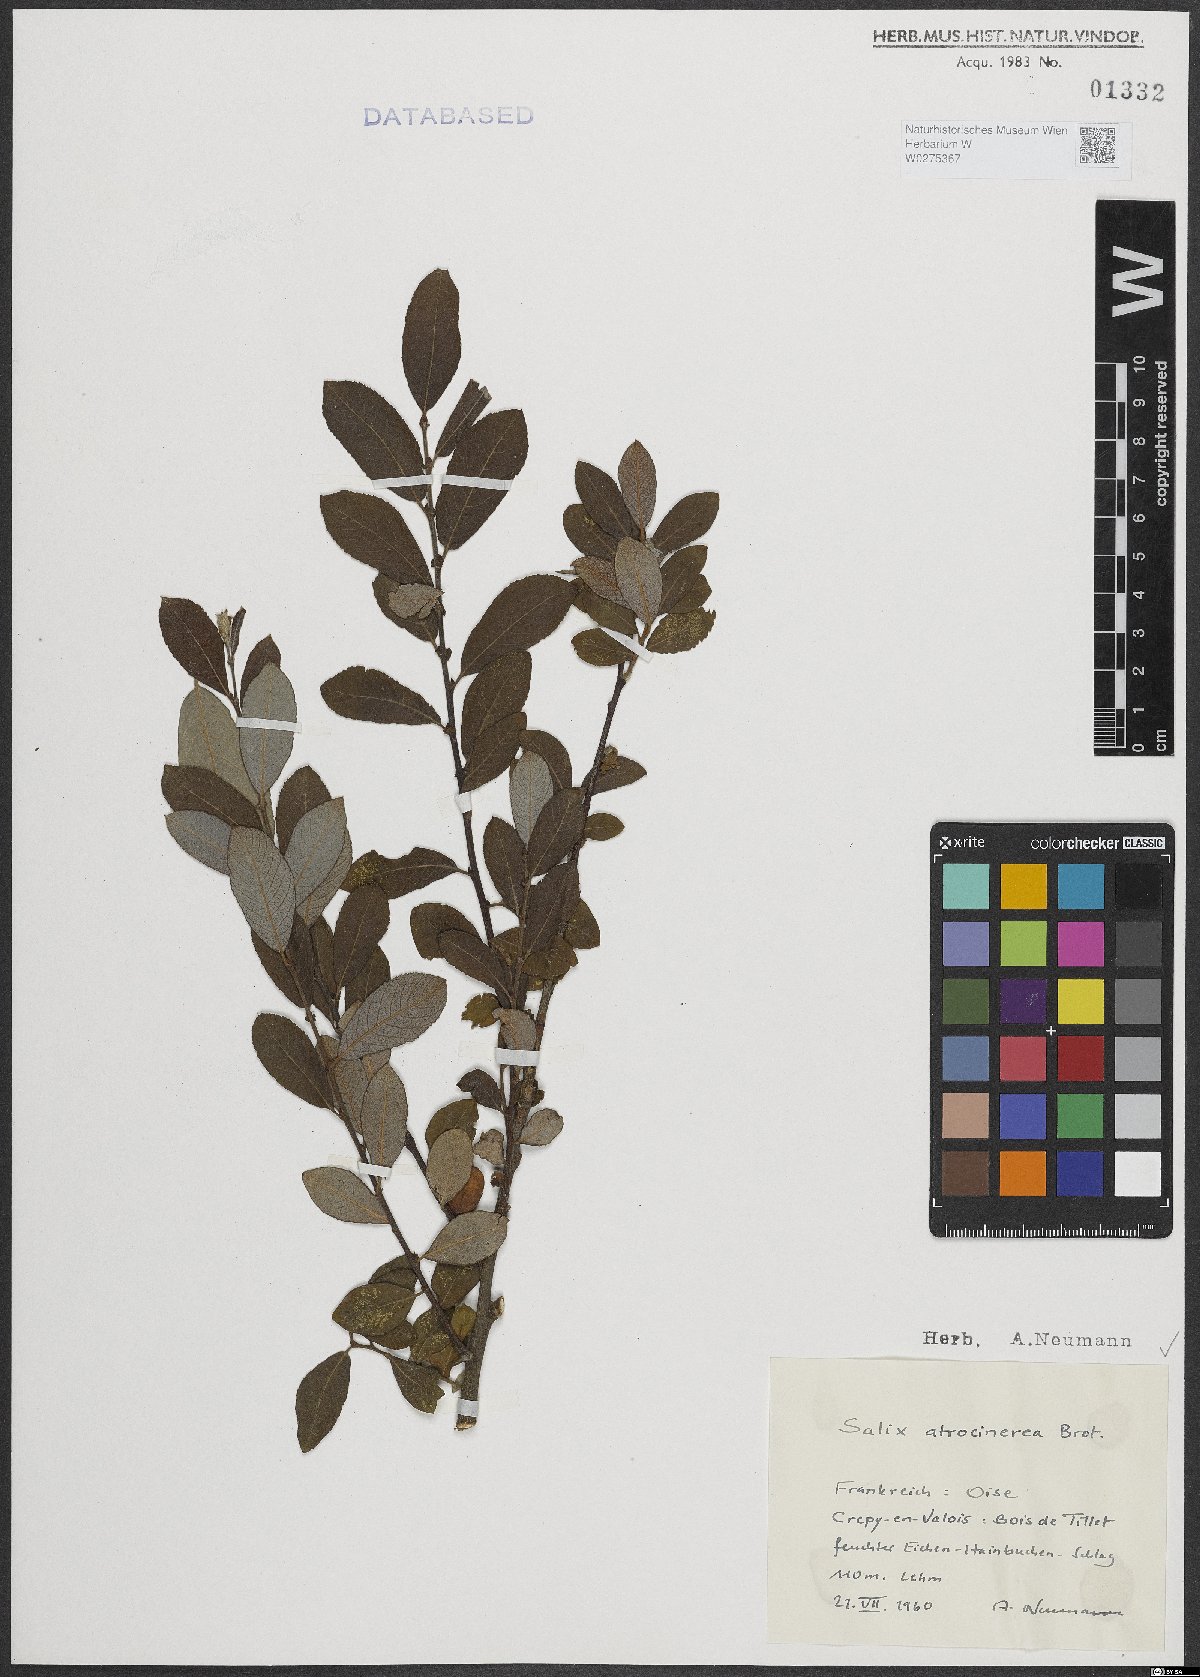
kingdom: Plantae
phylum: Tracheophyta
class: Magnoliopsida
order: Malpighiales
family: Salicaceae
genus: Salix
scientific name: Salix atrocinerea
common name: Rusty willow
